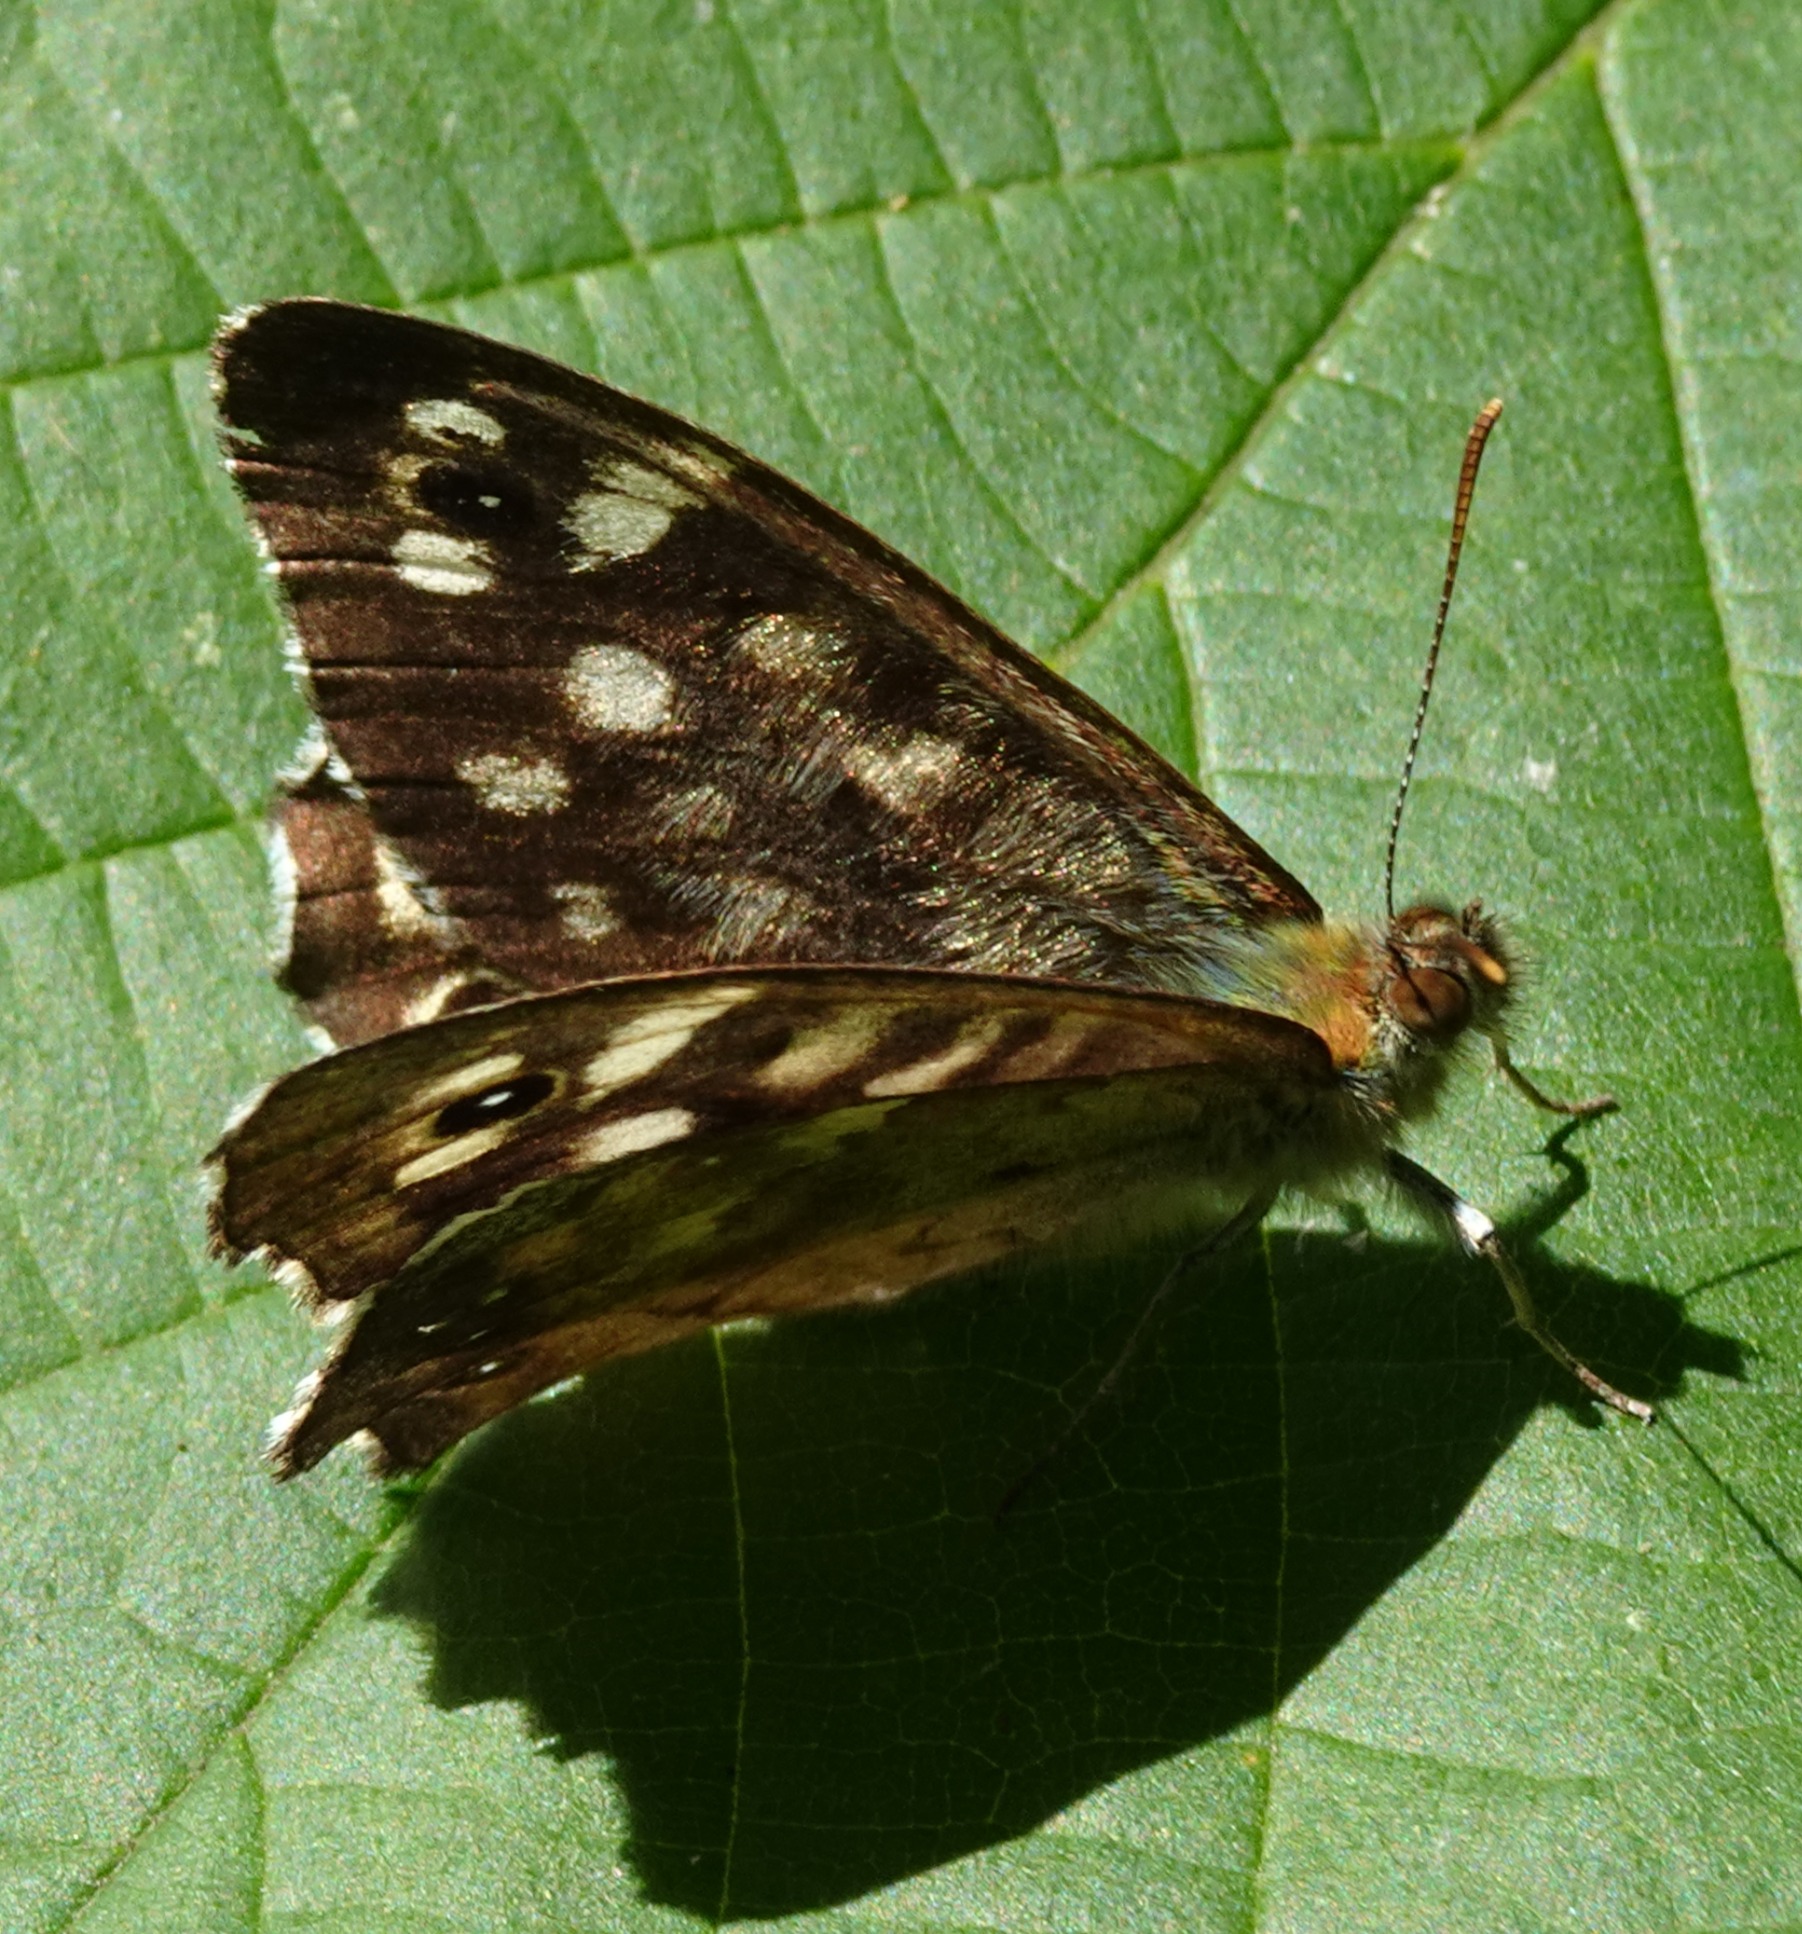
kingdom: Animalia
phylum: Arthropoda
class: Insecta
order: Lepidoptera
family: Nymphalidae
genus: Pararge
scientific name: Pararge aegeria
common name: Skovrandøje
